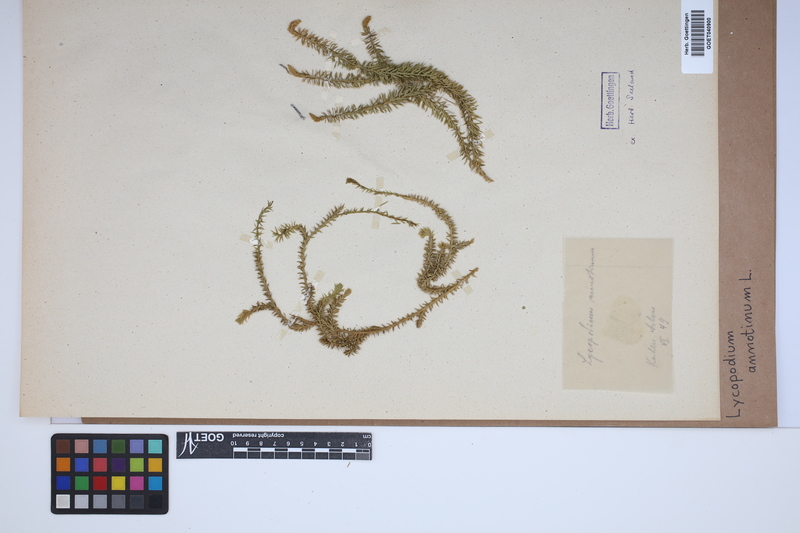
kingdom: Plantae
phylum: Tracheophyta
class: Lycopodiopsida
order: Lycopodiales
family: Lycopodiaceae
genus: Spinulum
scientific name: Spinulum annotinum
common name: Interrupted club-moss
